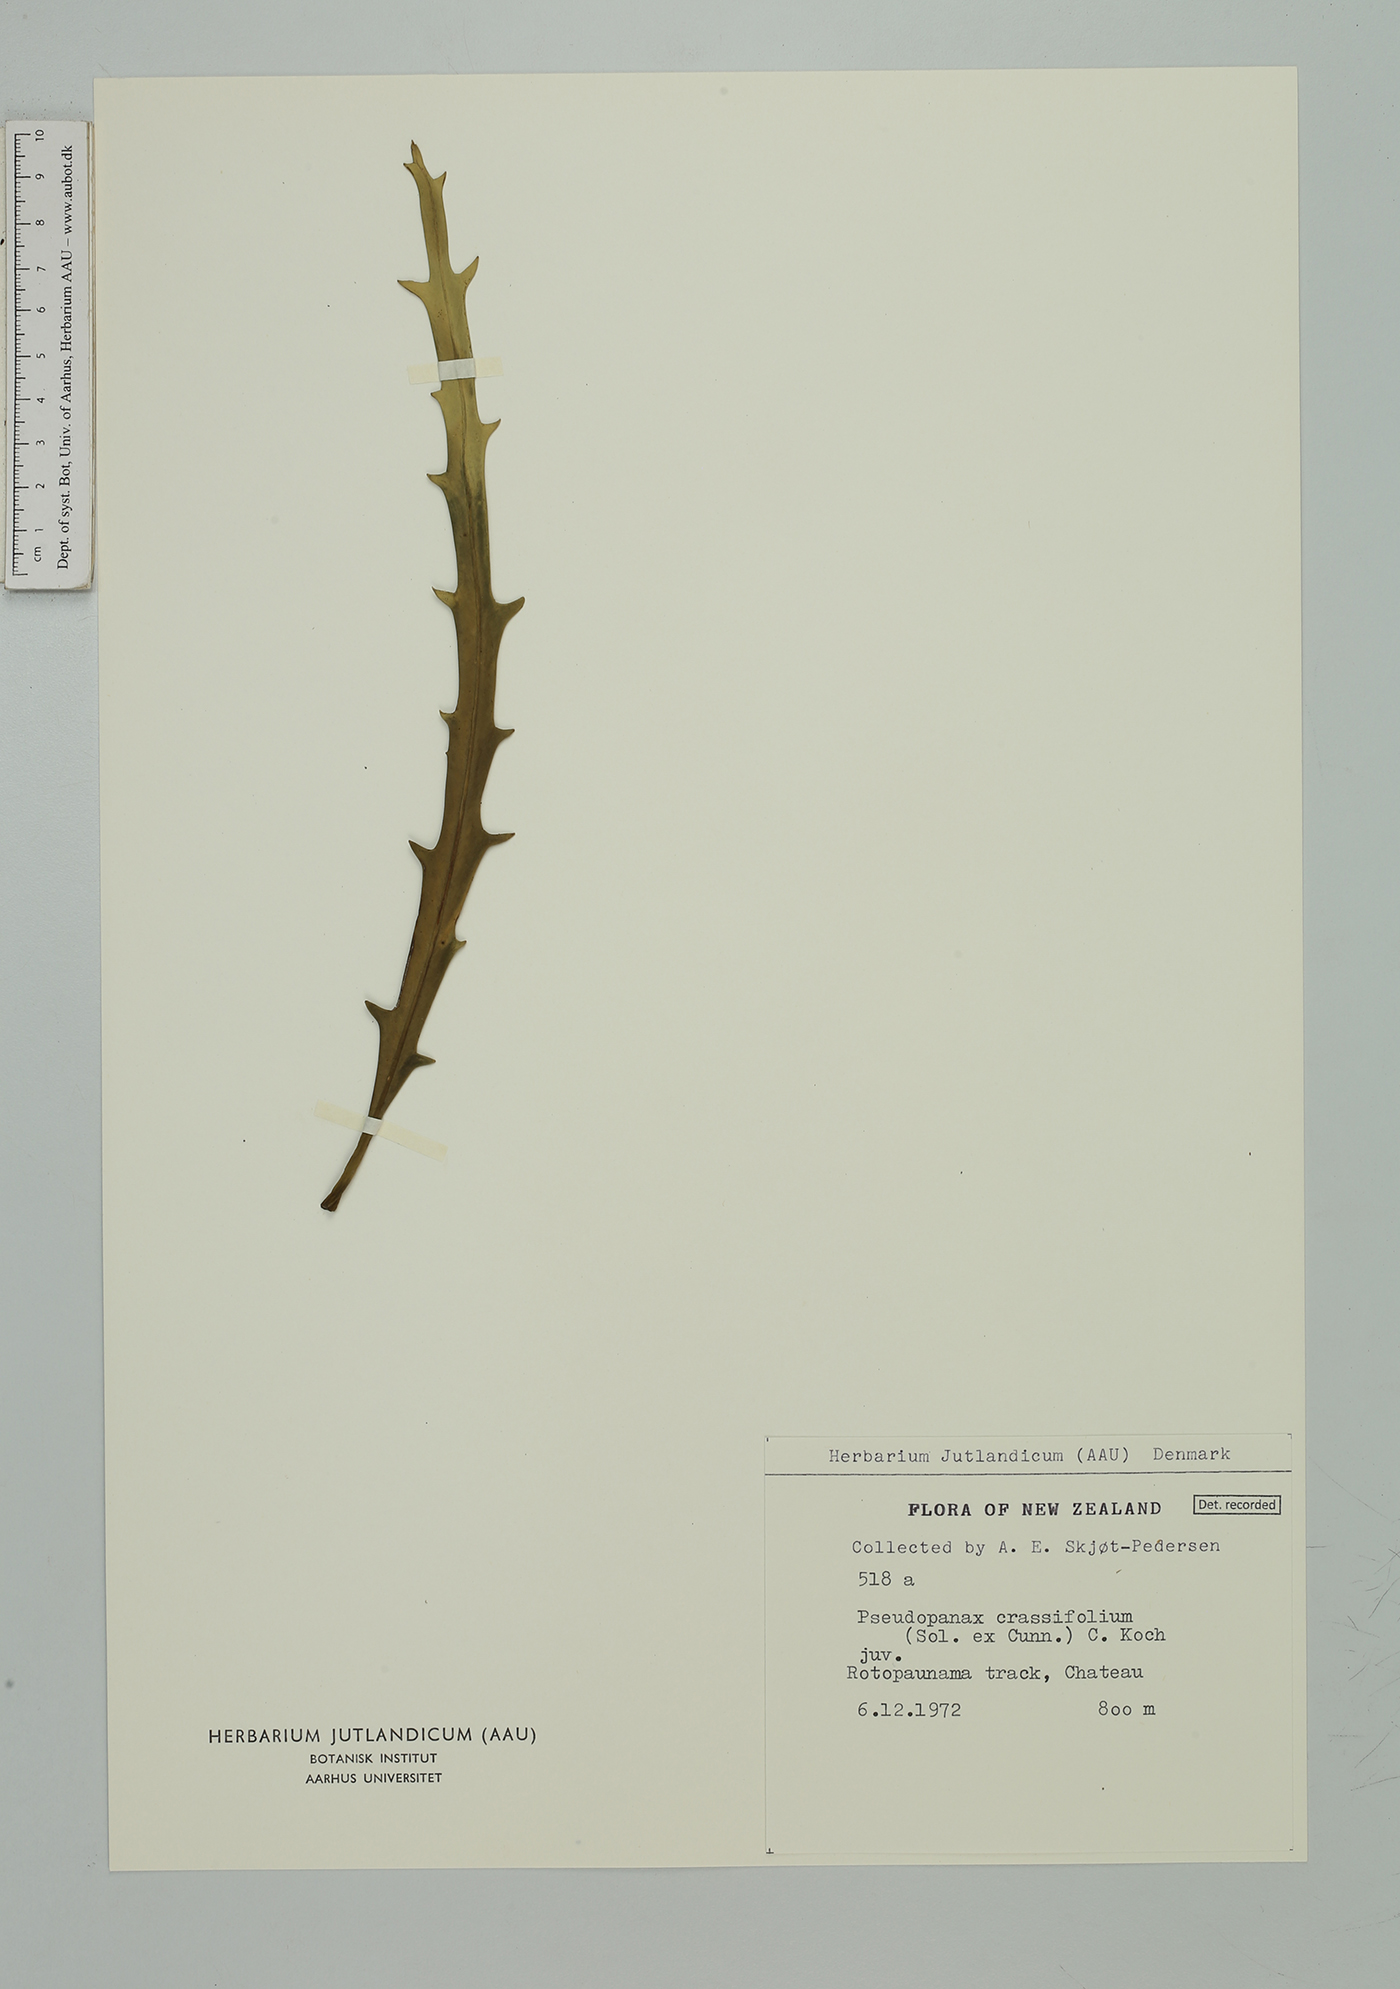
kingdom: Plantae
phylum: Tracheophyta
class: Magnoliopsida
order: Apiales
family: Araliaceae
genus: Pseudopanax
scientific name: Pseudopanax crassifolius
